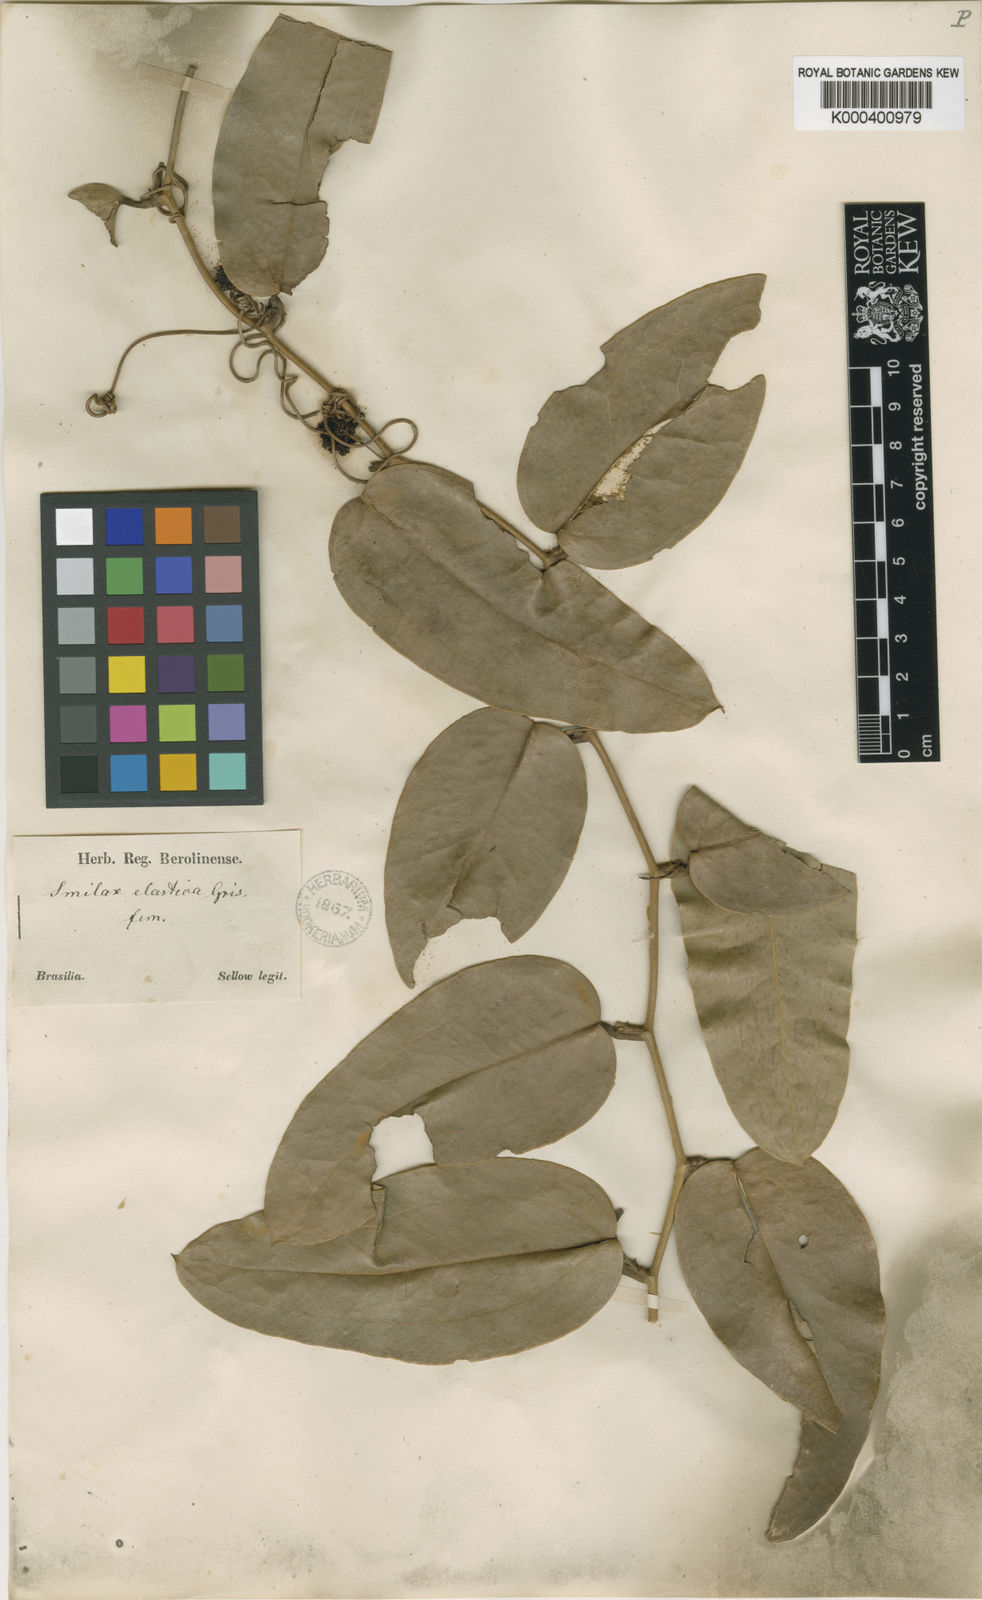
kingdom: Plantae
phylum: Tracheophyta
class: Liliopsida
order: Liliales
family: Smilacaceae
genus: Smilax
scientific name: Smilax elastica
